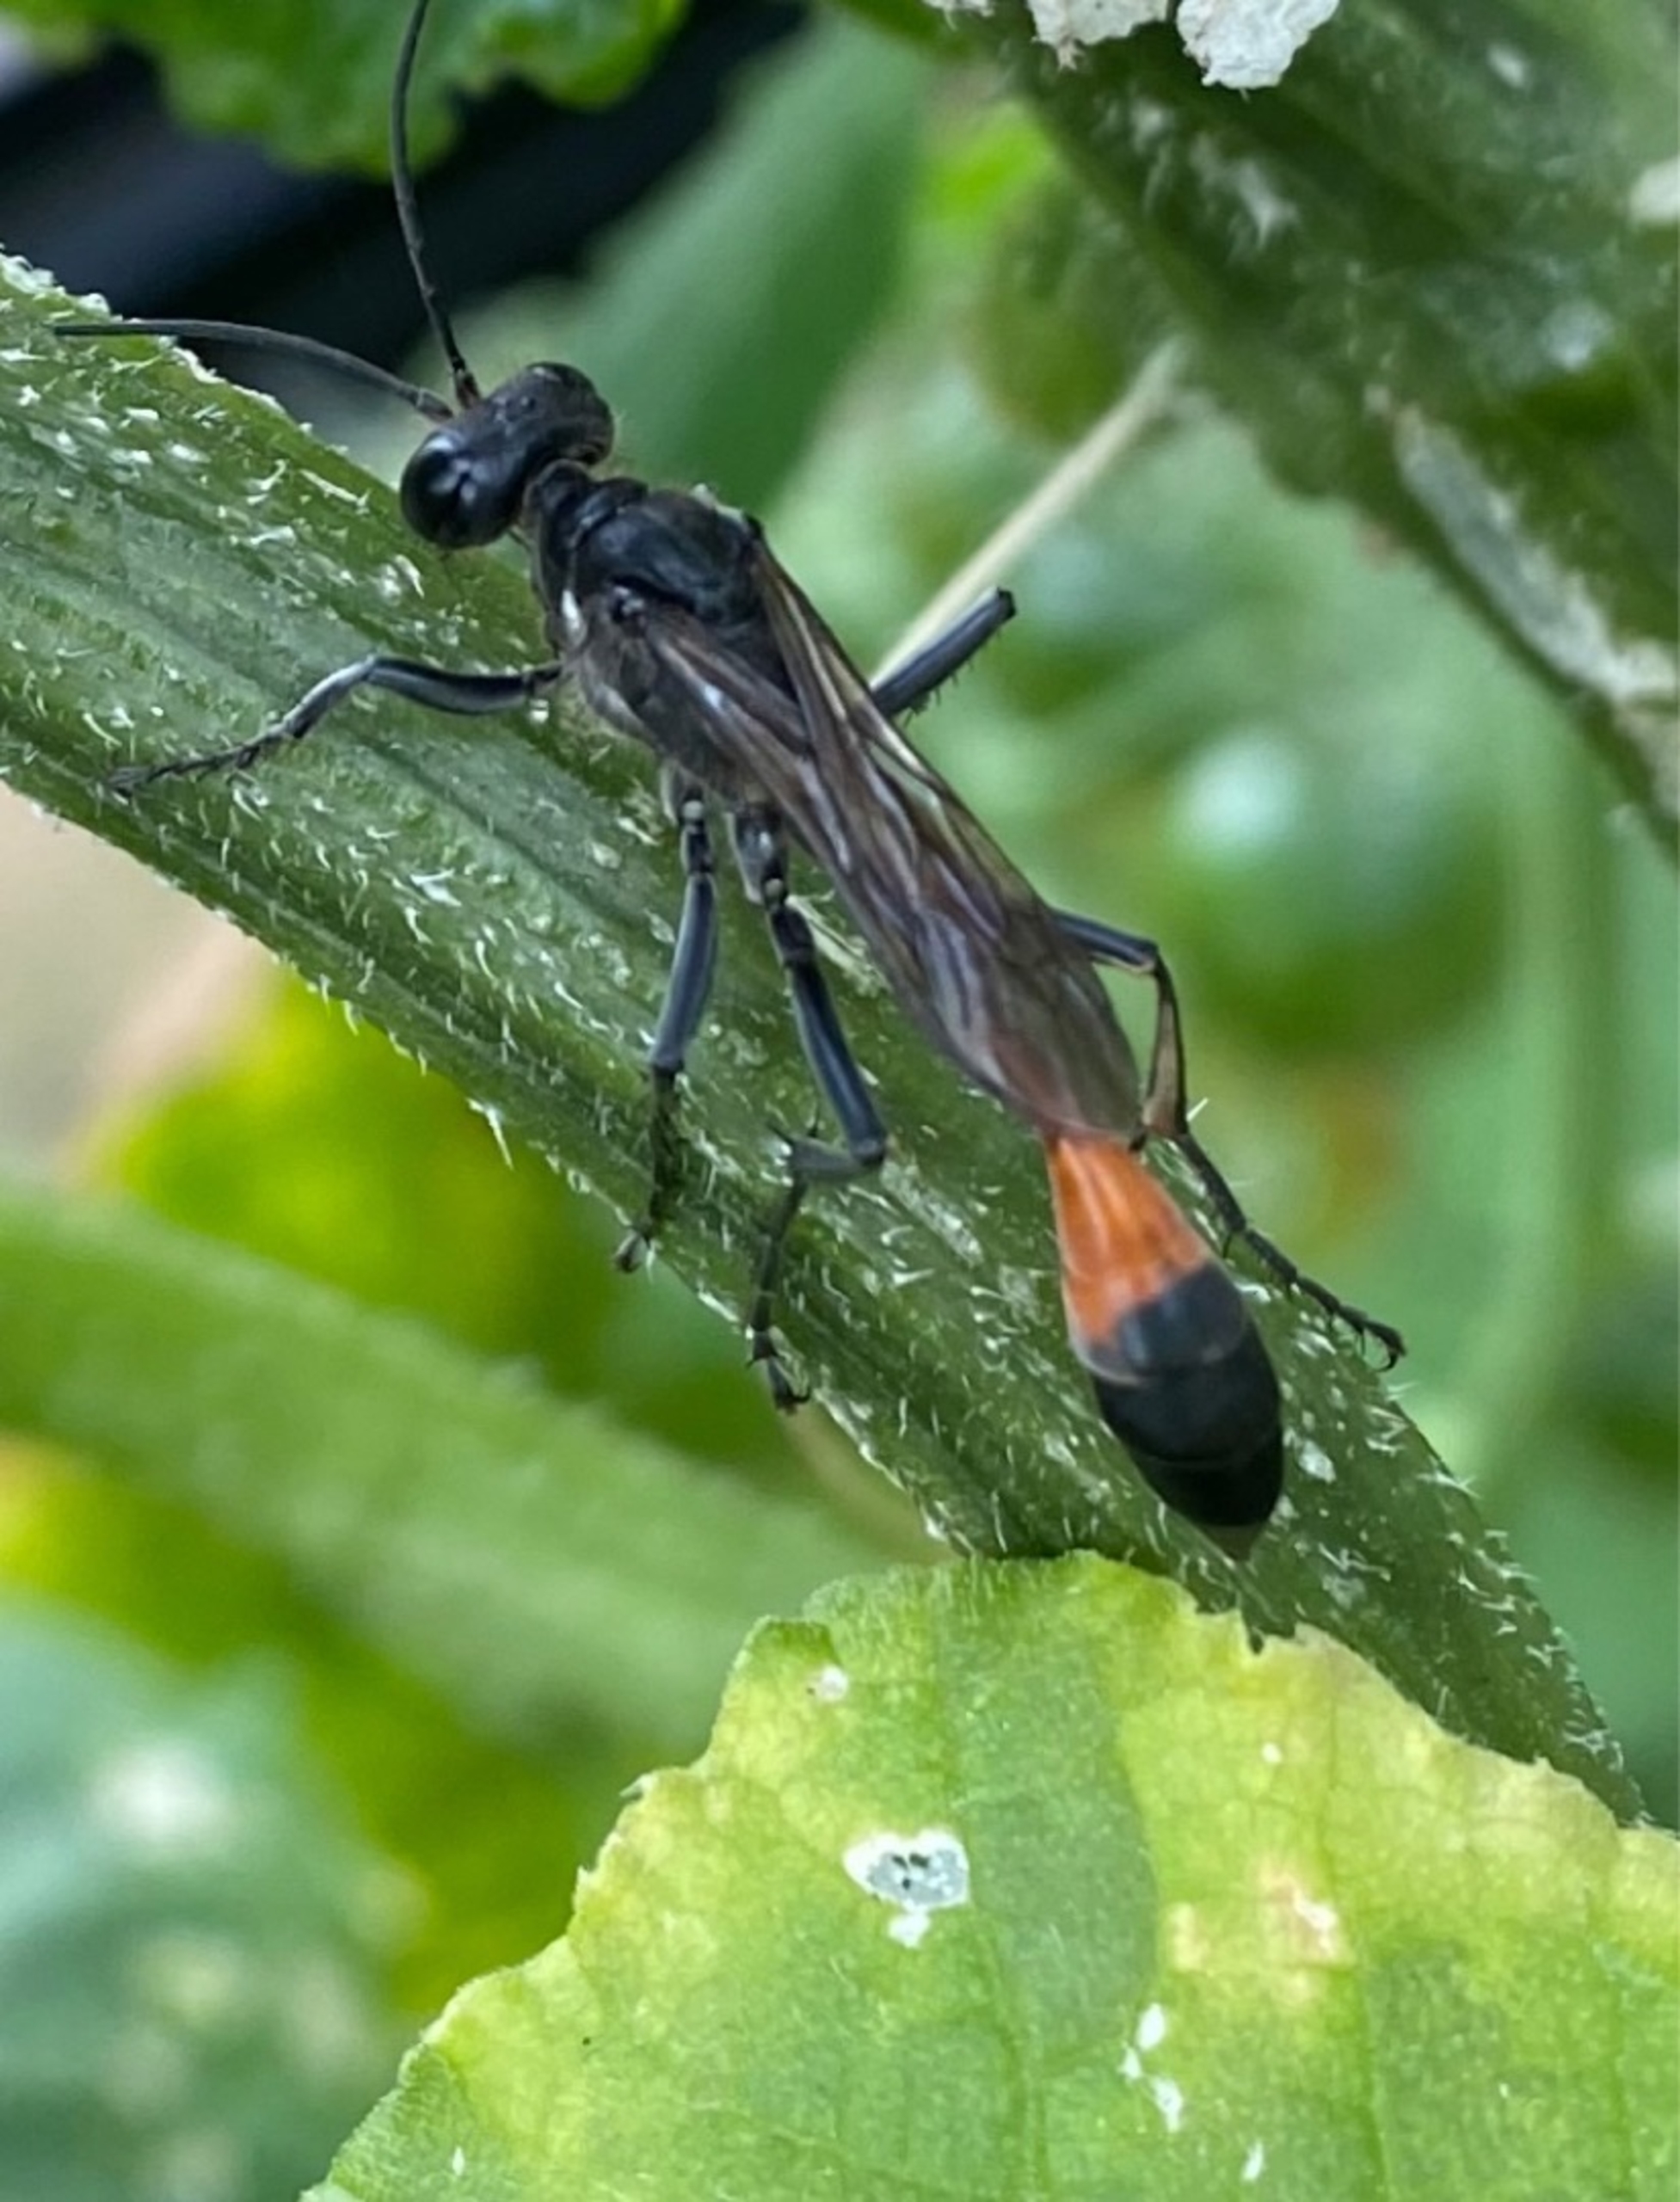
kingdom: Animalia
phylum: Arthropoda
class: Insecta
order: Hymenoptera
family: Sphecidae
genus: Ammophila
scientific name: Ammophila
